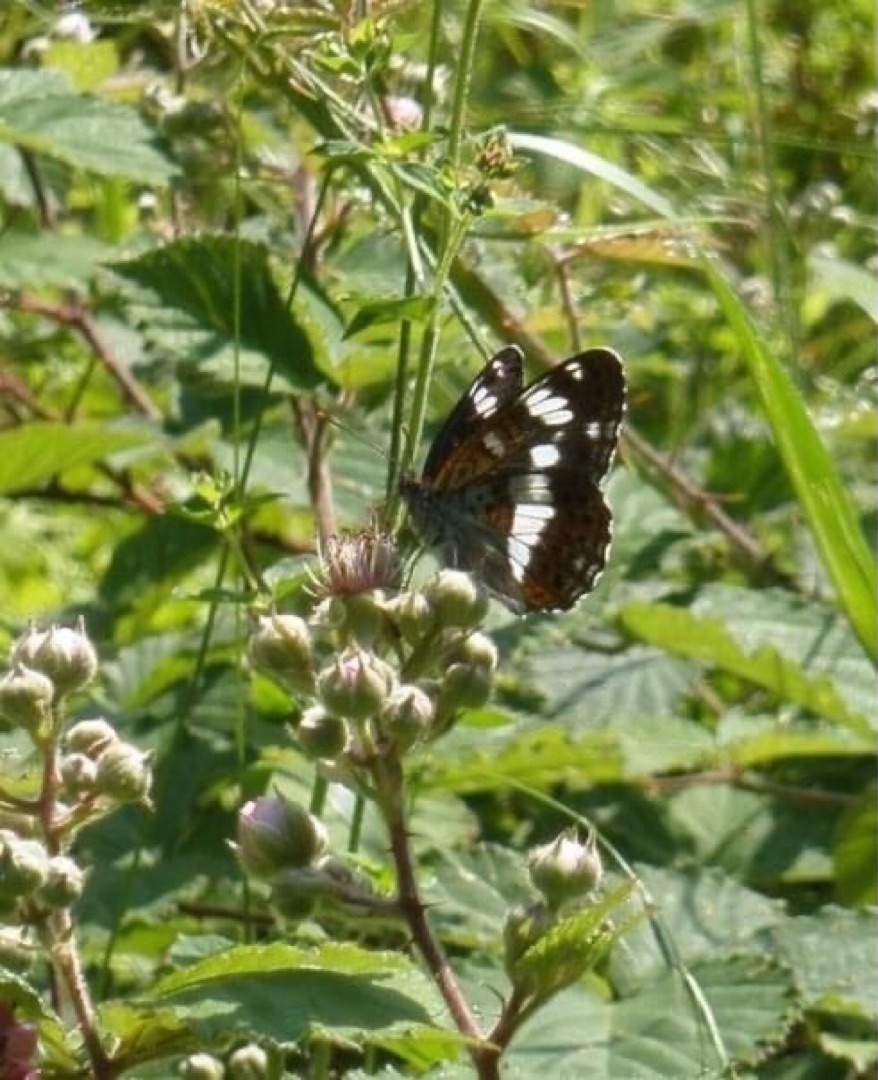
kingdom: Animalia
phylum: Arthropoda
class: Insecta
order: Lepidoptera
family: Nymphalidae
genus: Ladoga
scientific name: Ladoga camilla
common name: Hvid admiral
